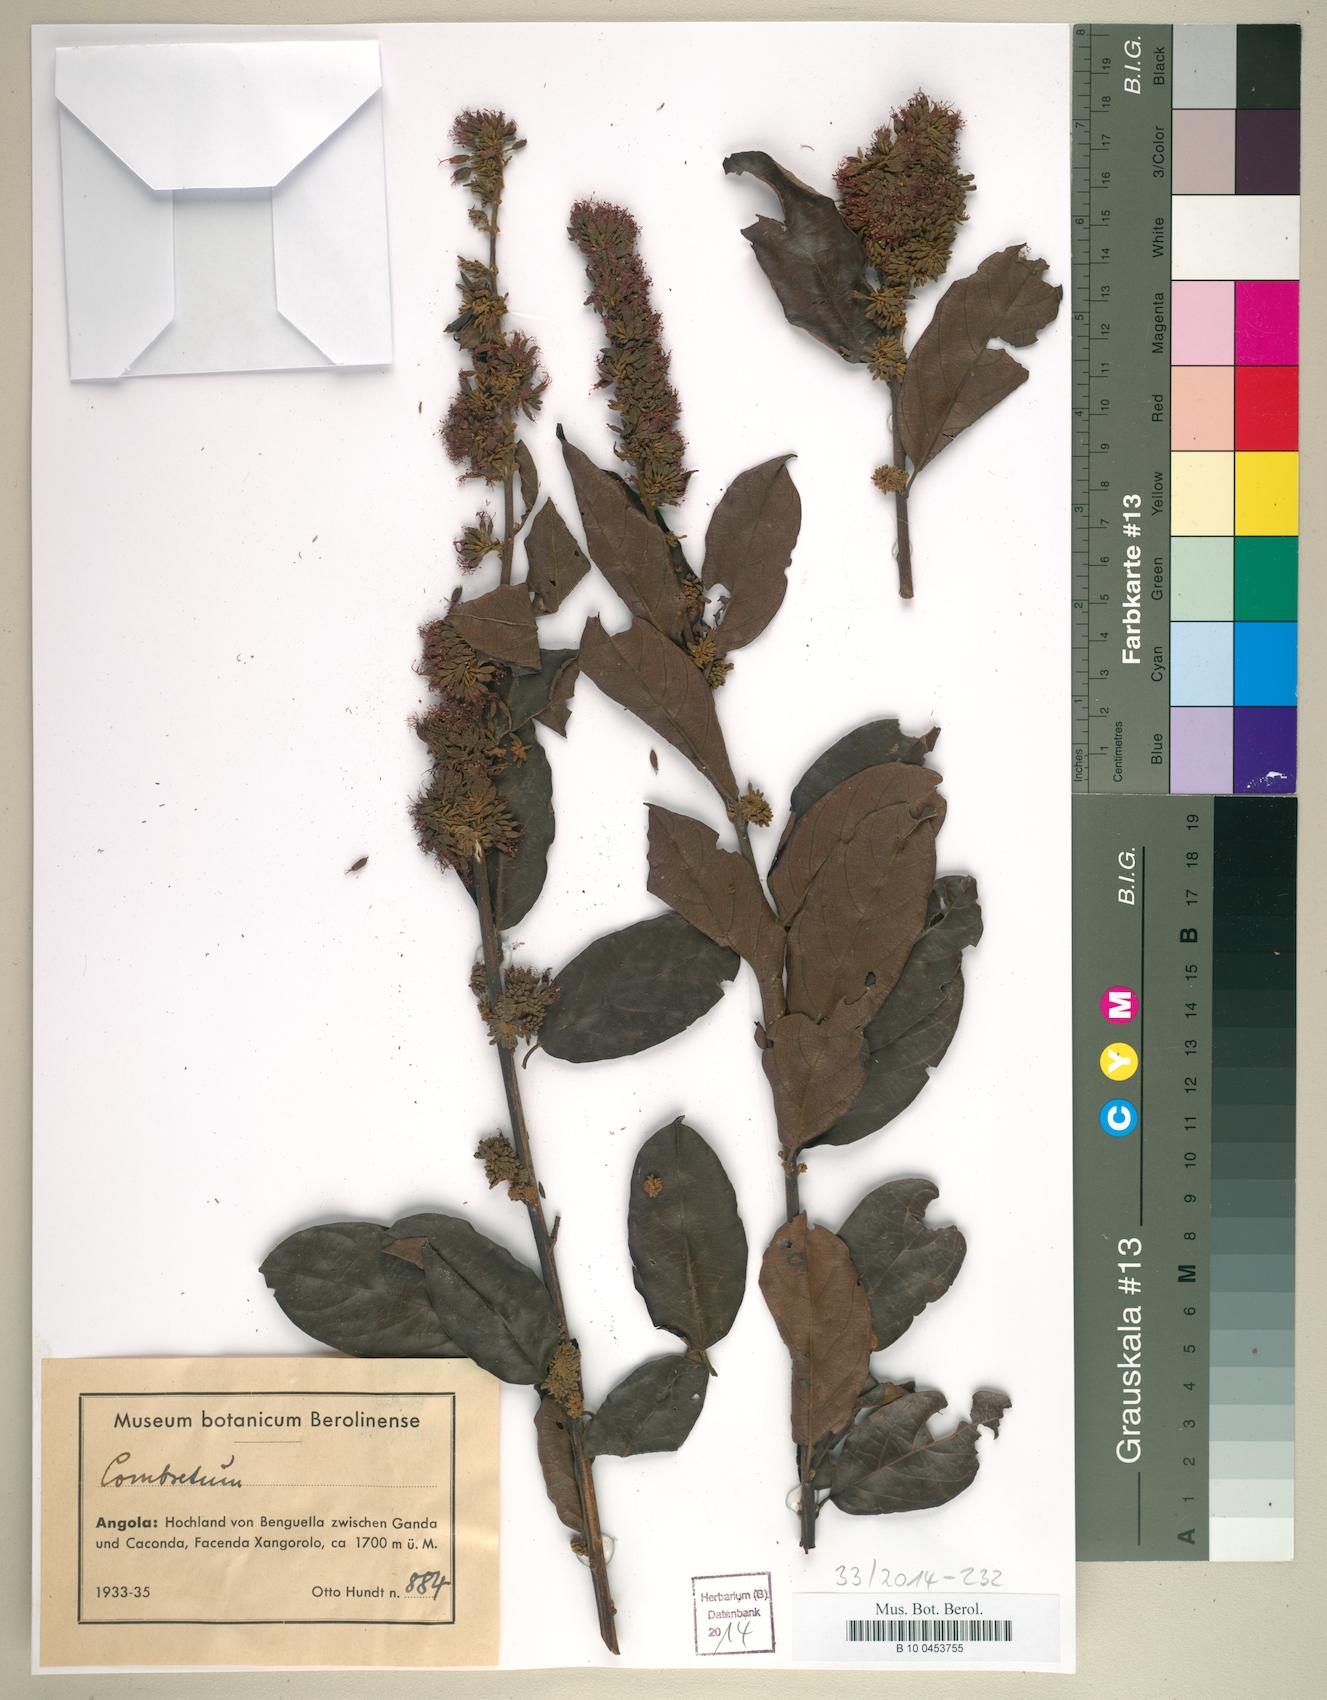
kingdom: Plantae
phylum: Tracheophyta
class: Magnoliopsida
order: Myrtales
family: Combretaceae
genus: Combretum
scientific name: Combretum paniculatum
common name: Fire vine
